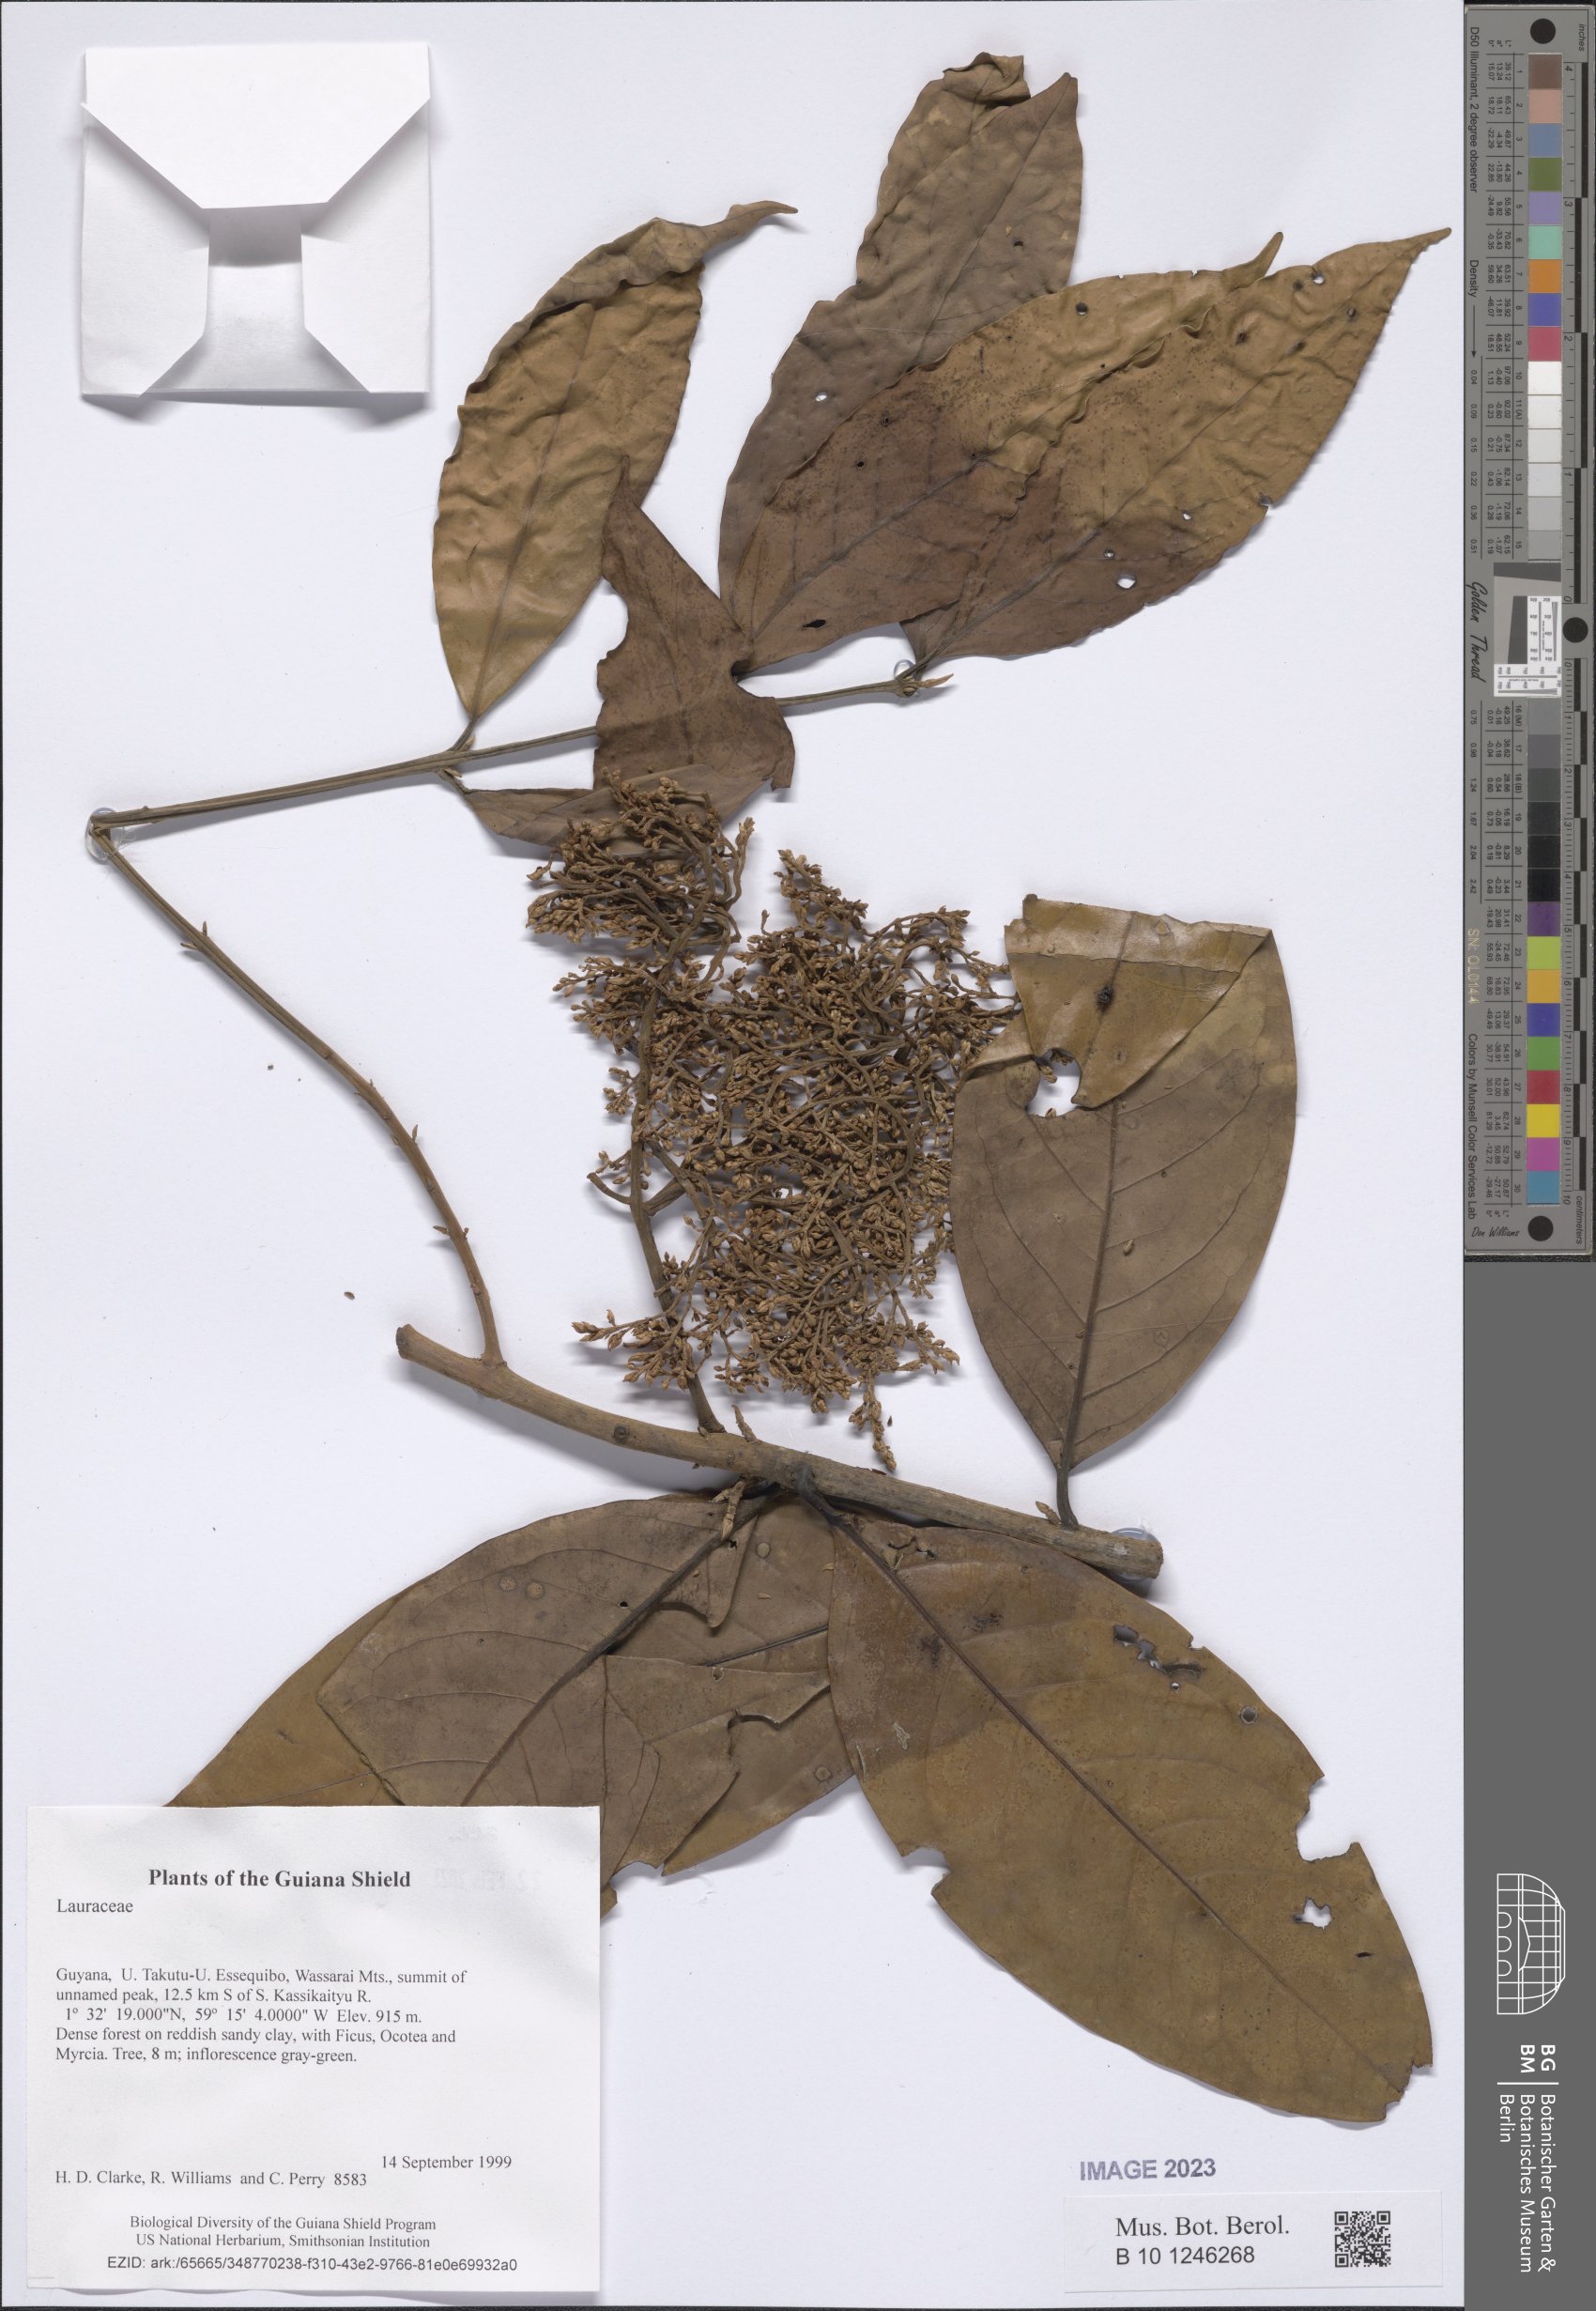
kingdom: Plantae
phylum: Tracheophyta
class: Magnoliopsida
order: Laurales
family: Lauraceae
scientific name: Lauraceae
